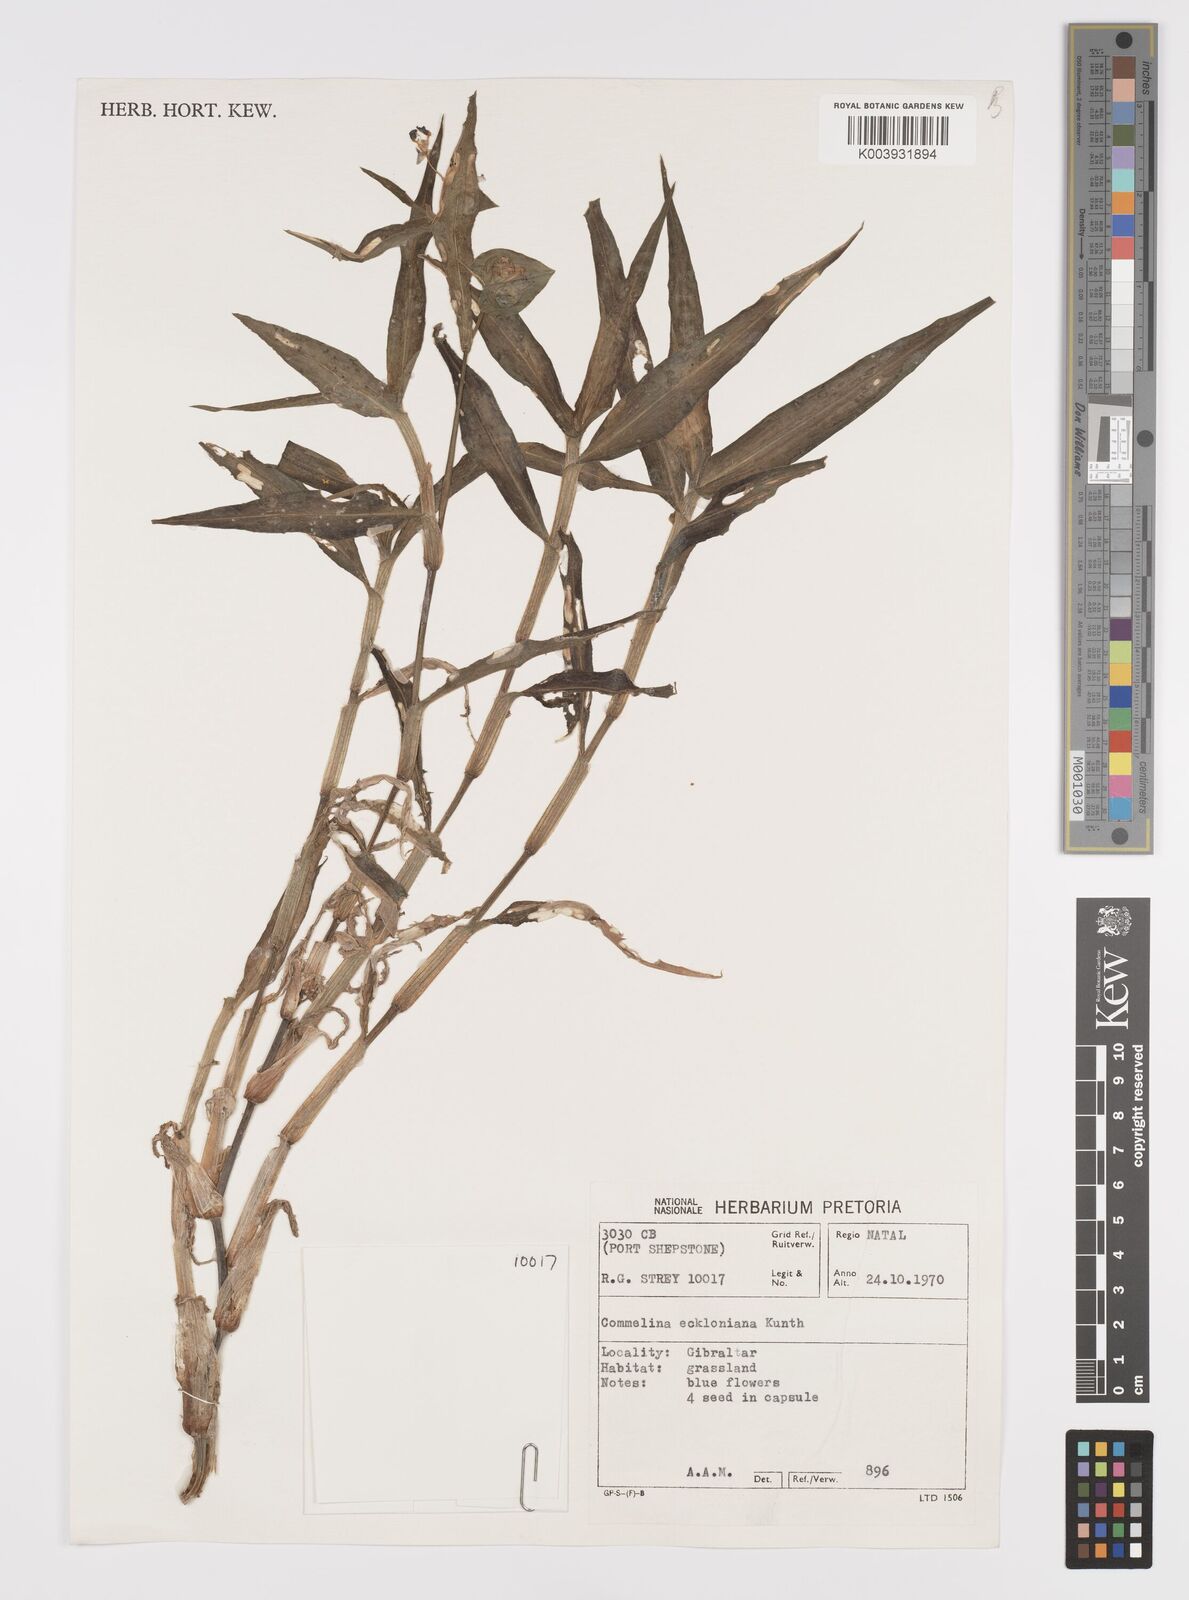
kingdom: Plantae
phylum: Tracheophyta
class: Liliopsida
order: Commelinales
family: Commelinaceae
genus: Commelina
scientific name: Commelina eckloniana
